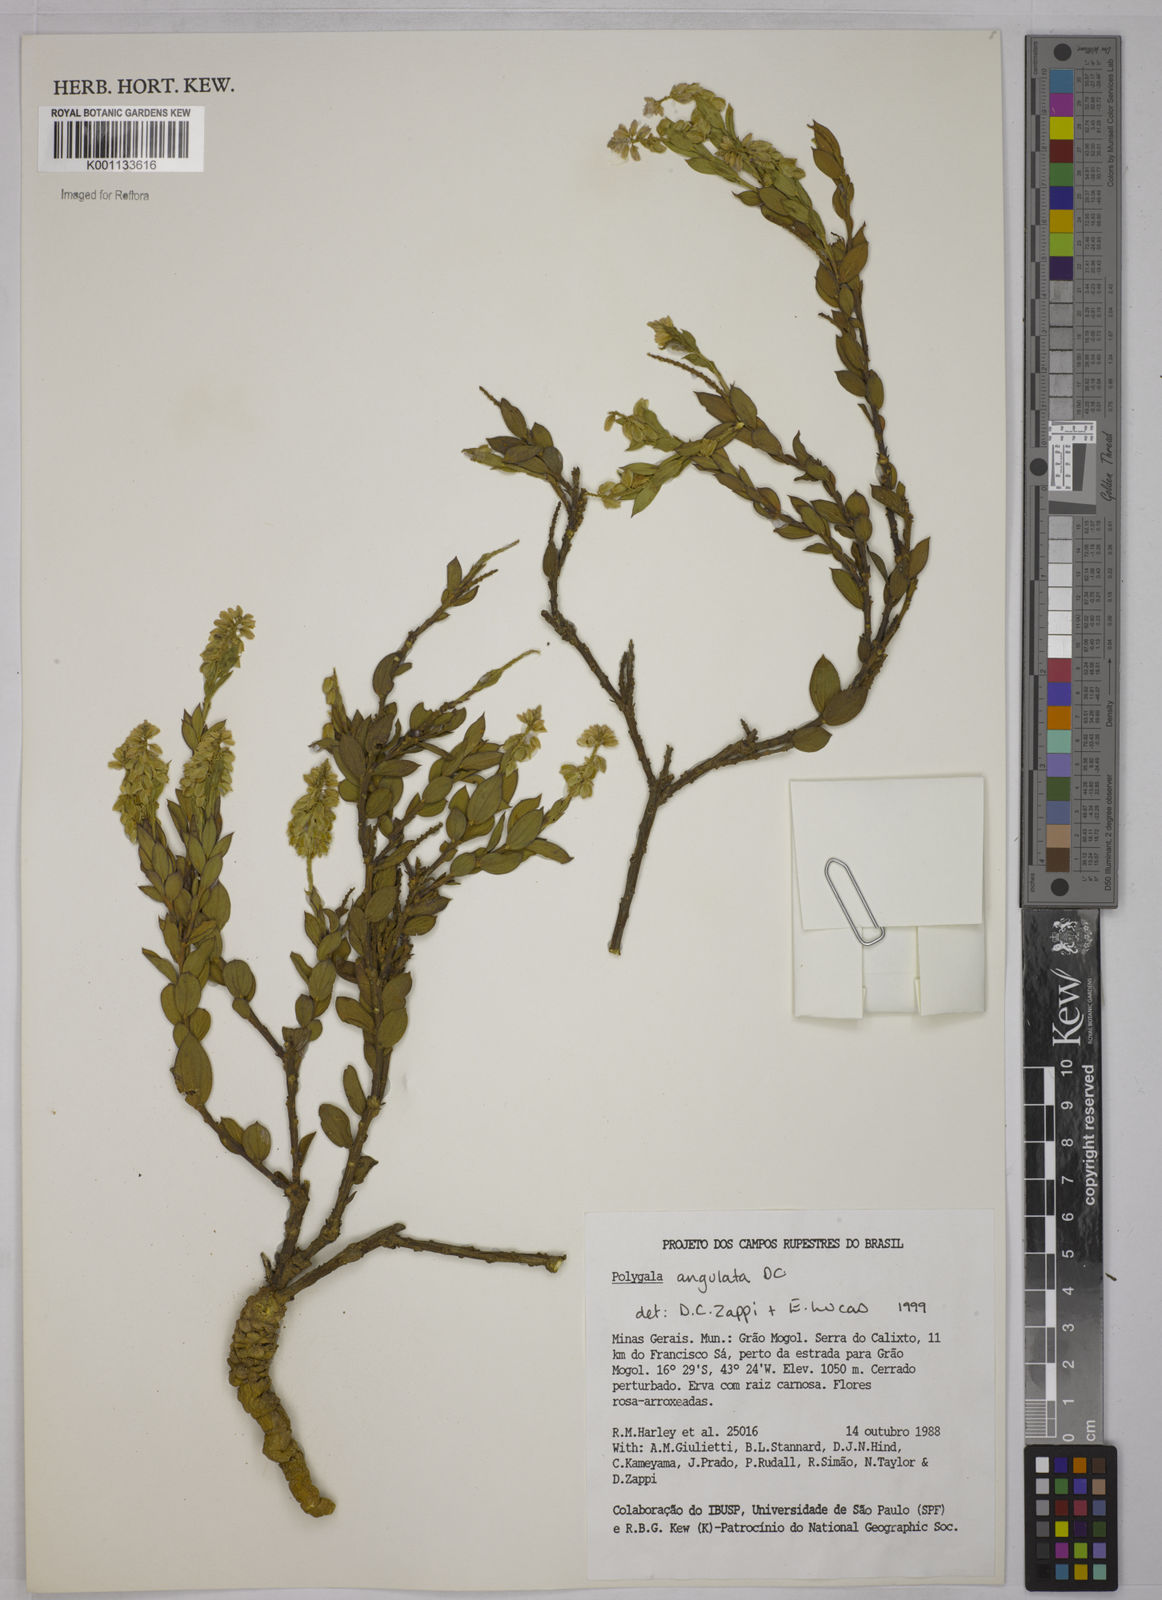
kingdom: Plantae
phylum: Tracheophyta
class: Magnoliopsida
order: Fabales
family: Polygalaceae
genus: Polygala
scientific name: Polygala poaya
